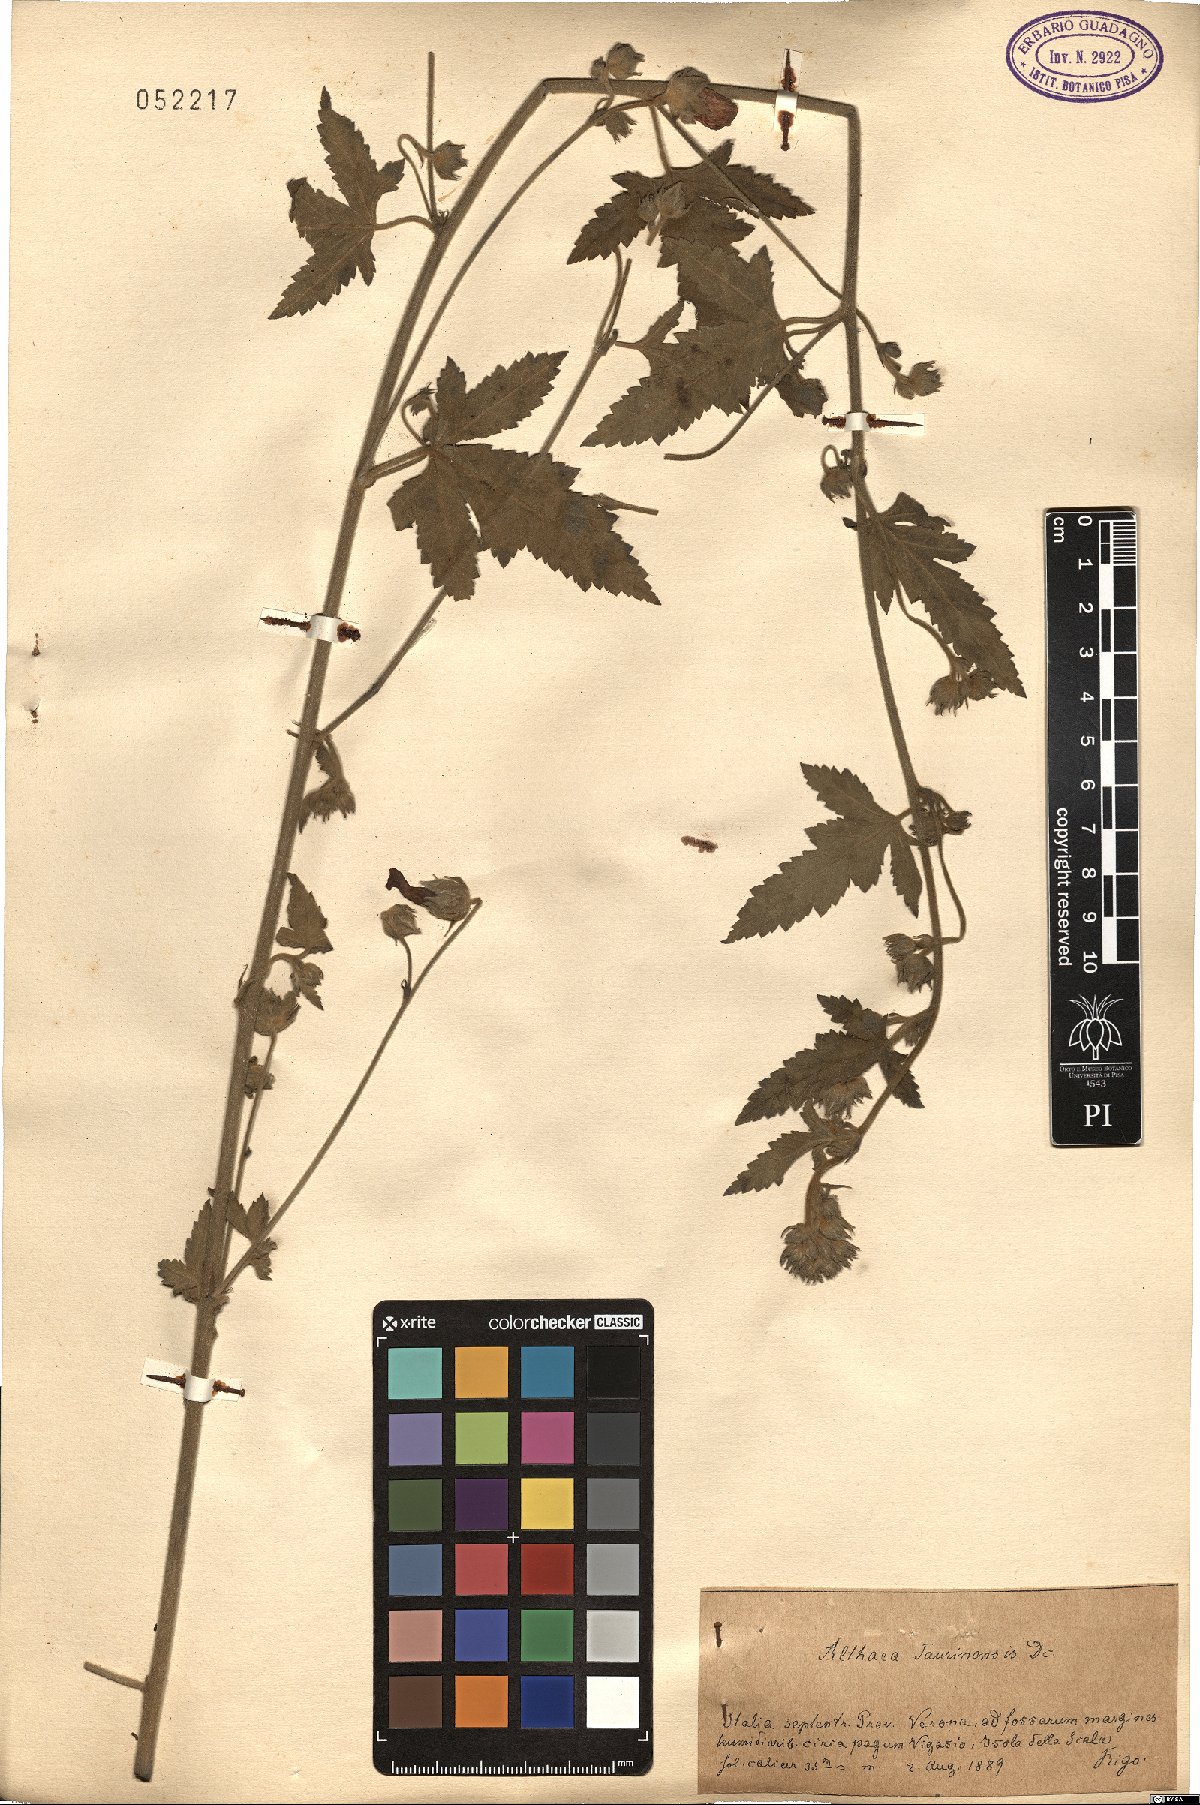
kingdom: Plantae
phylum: Tracheophyta
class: Magnoliopsida
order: Malvales
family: Malvaceae
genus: Althaea
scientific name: Althaea taurinensis
